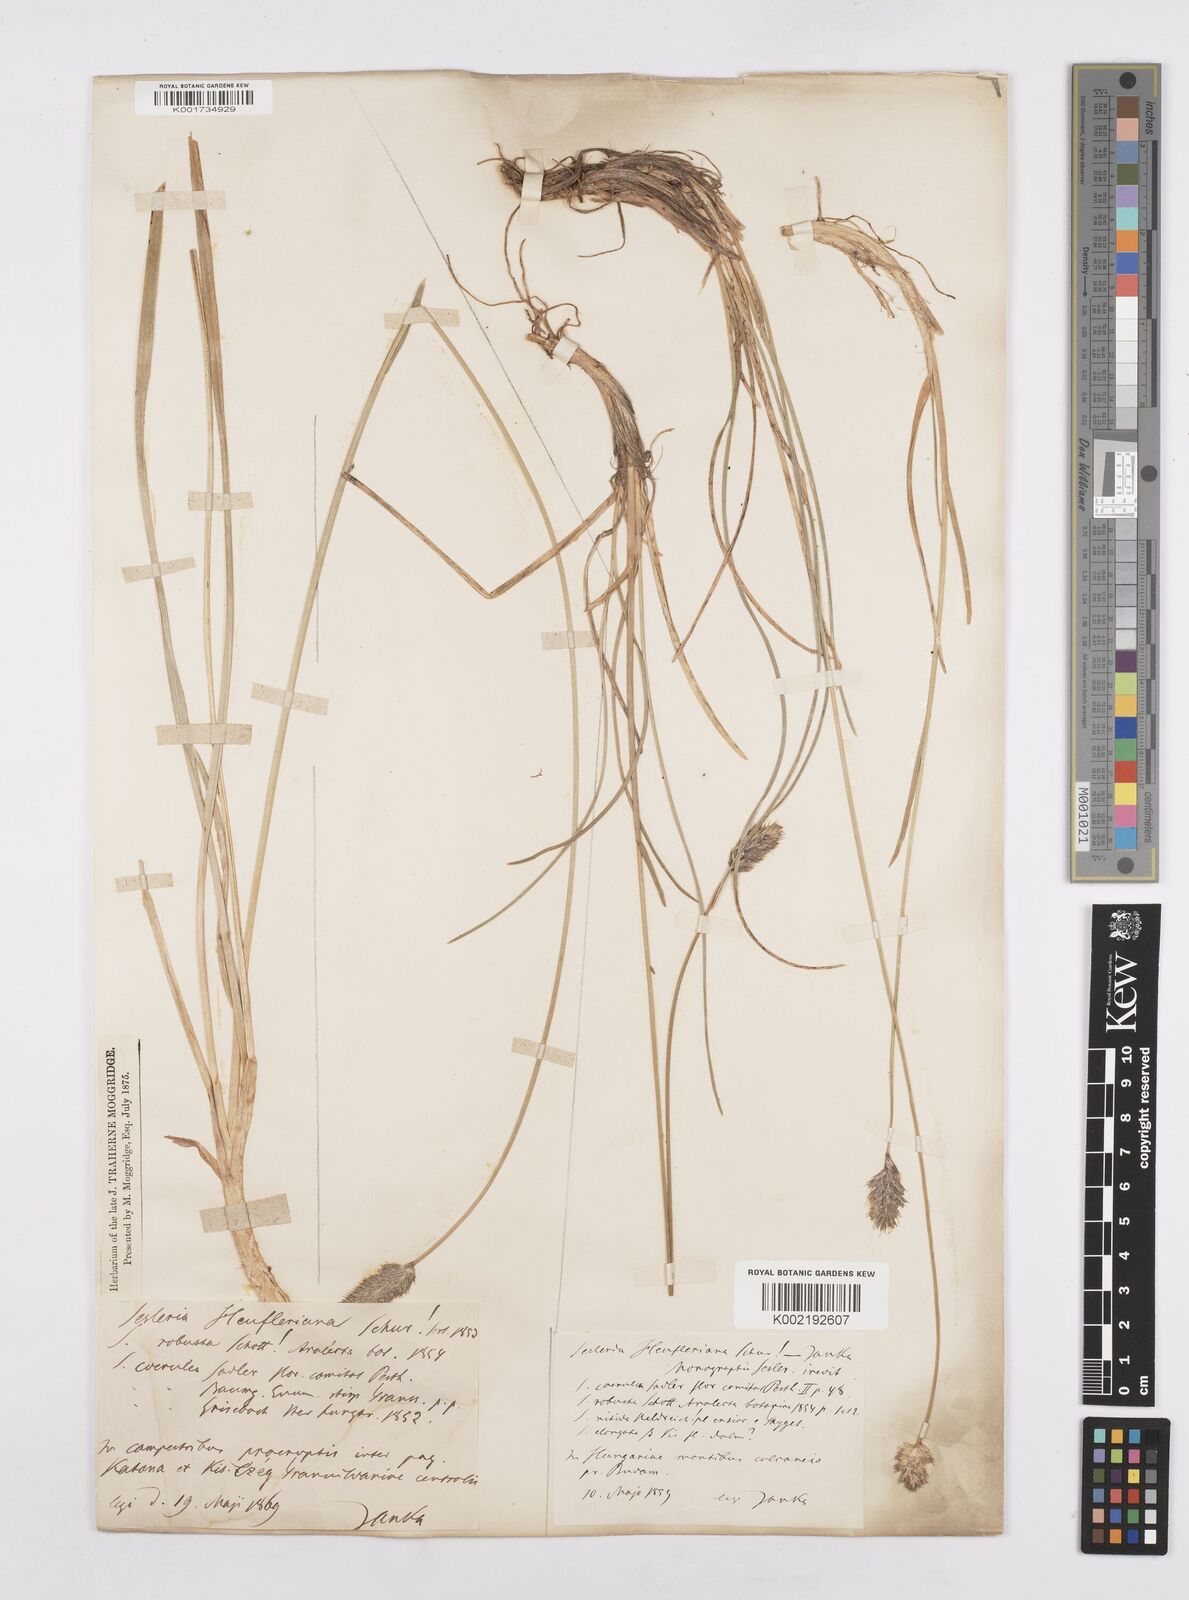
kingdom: Plantae
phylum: Tracheophyta
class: Liliopsida
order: Poales
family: Poaceae
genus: Sesleria
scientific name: Sesleria heufleriana
